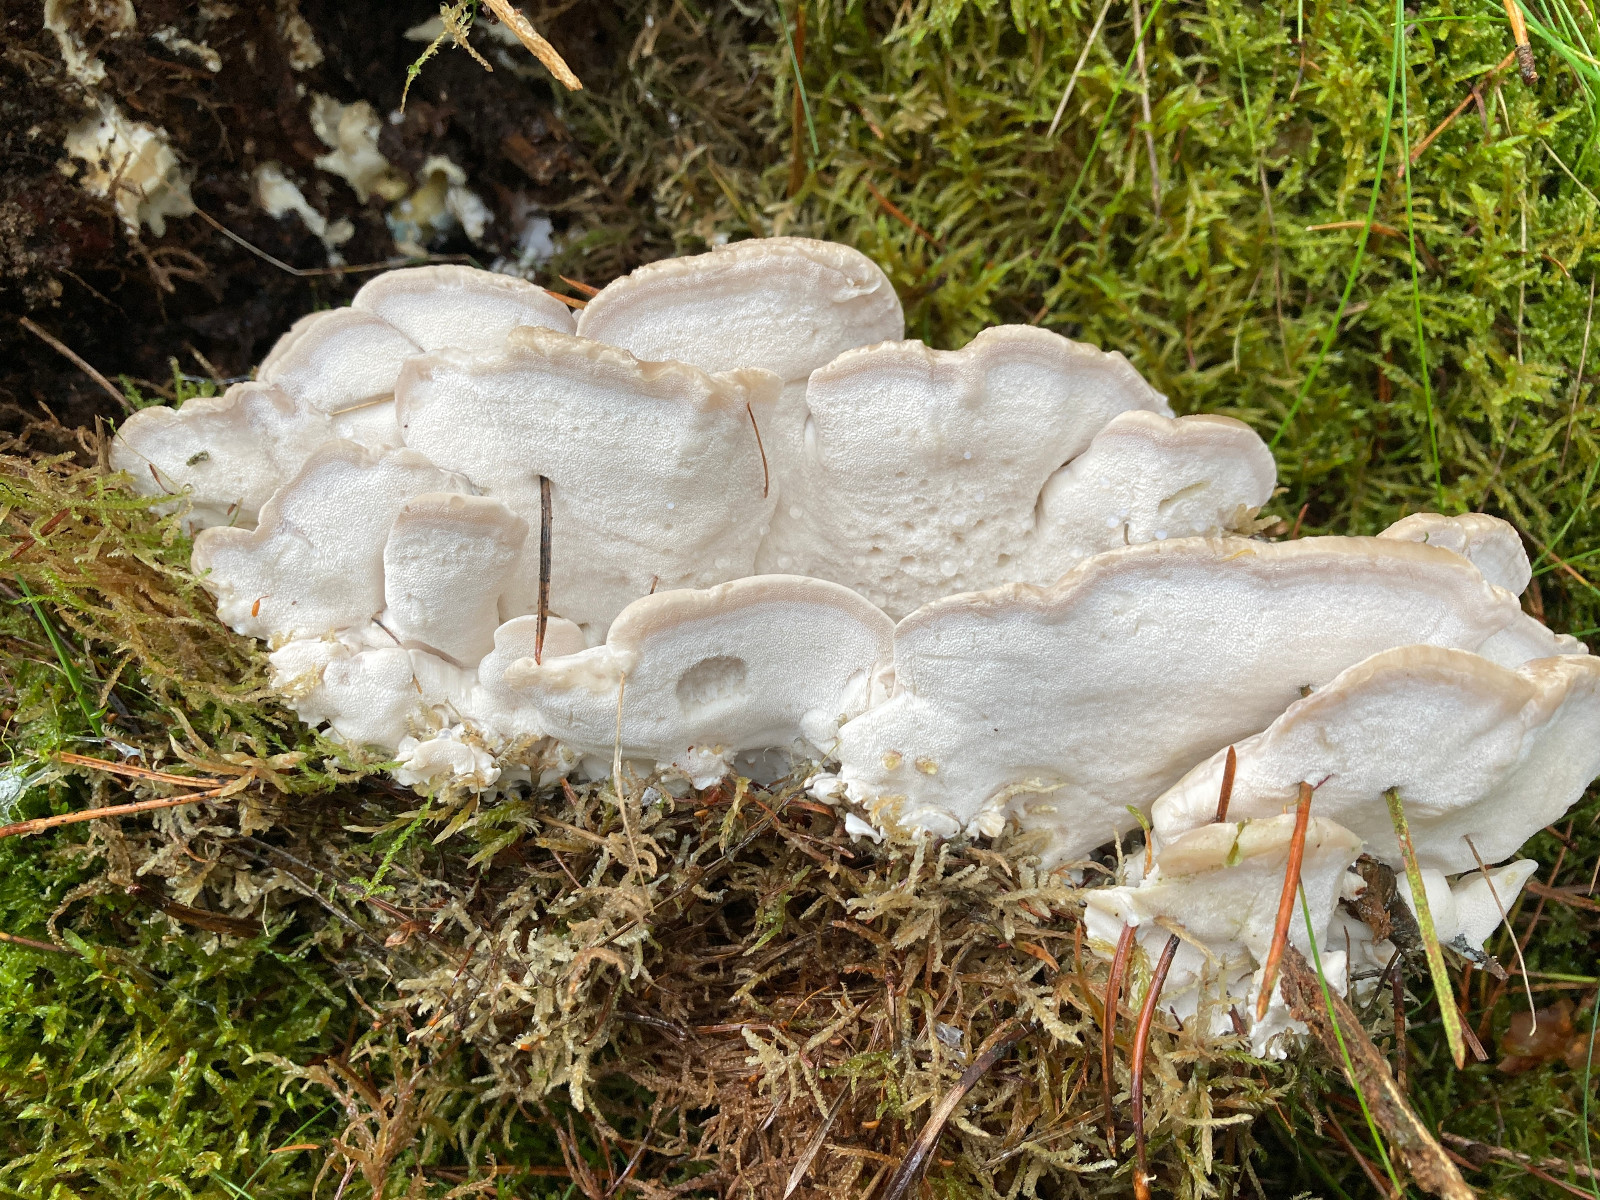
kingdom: Fungi
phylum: Basidiomycota
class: Agaricomycetes
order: Polyporales
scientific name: Polyporales
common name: poresvampordenen
